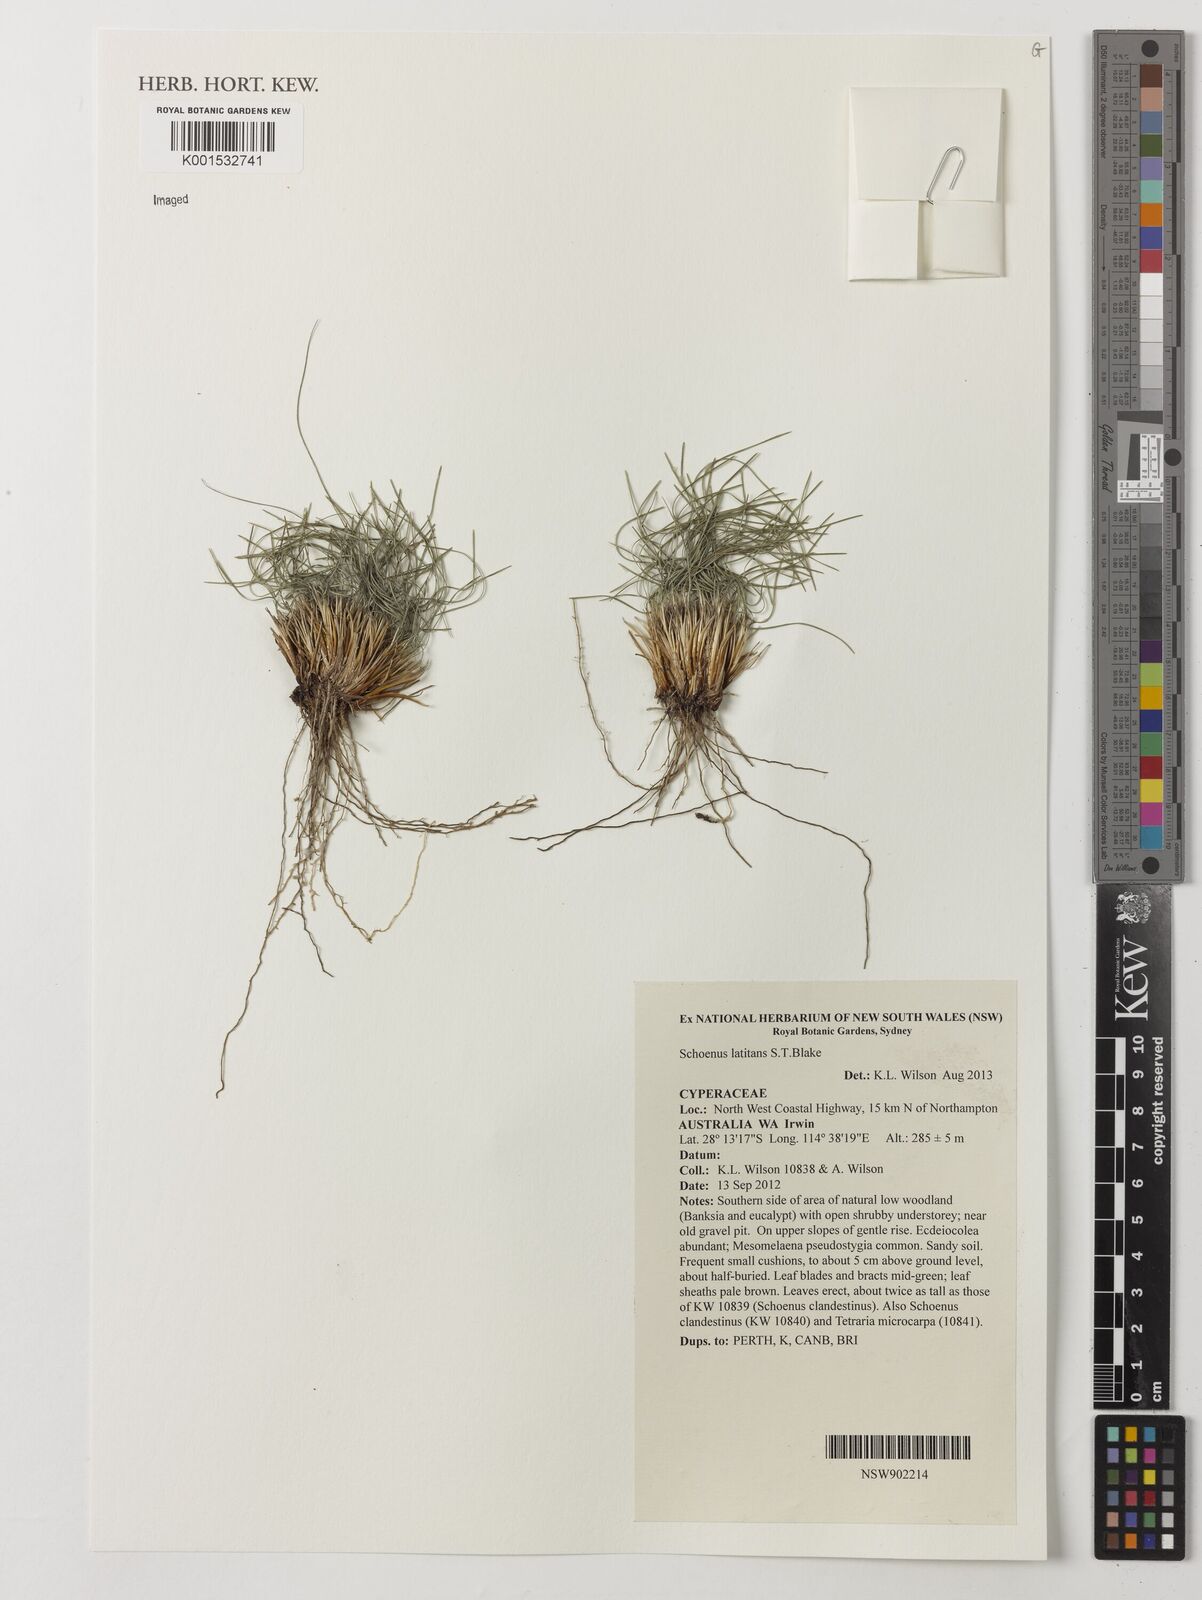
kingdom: Plantae
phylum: Tracheophyta
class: Liliopsida
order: Poales
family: Cyperaceae
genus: Schoenus
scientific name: Schoenus latitans
